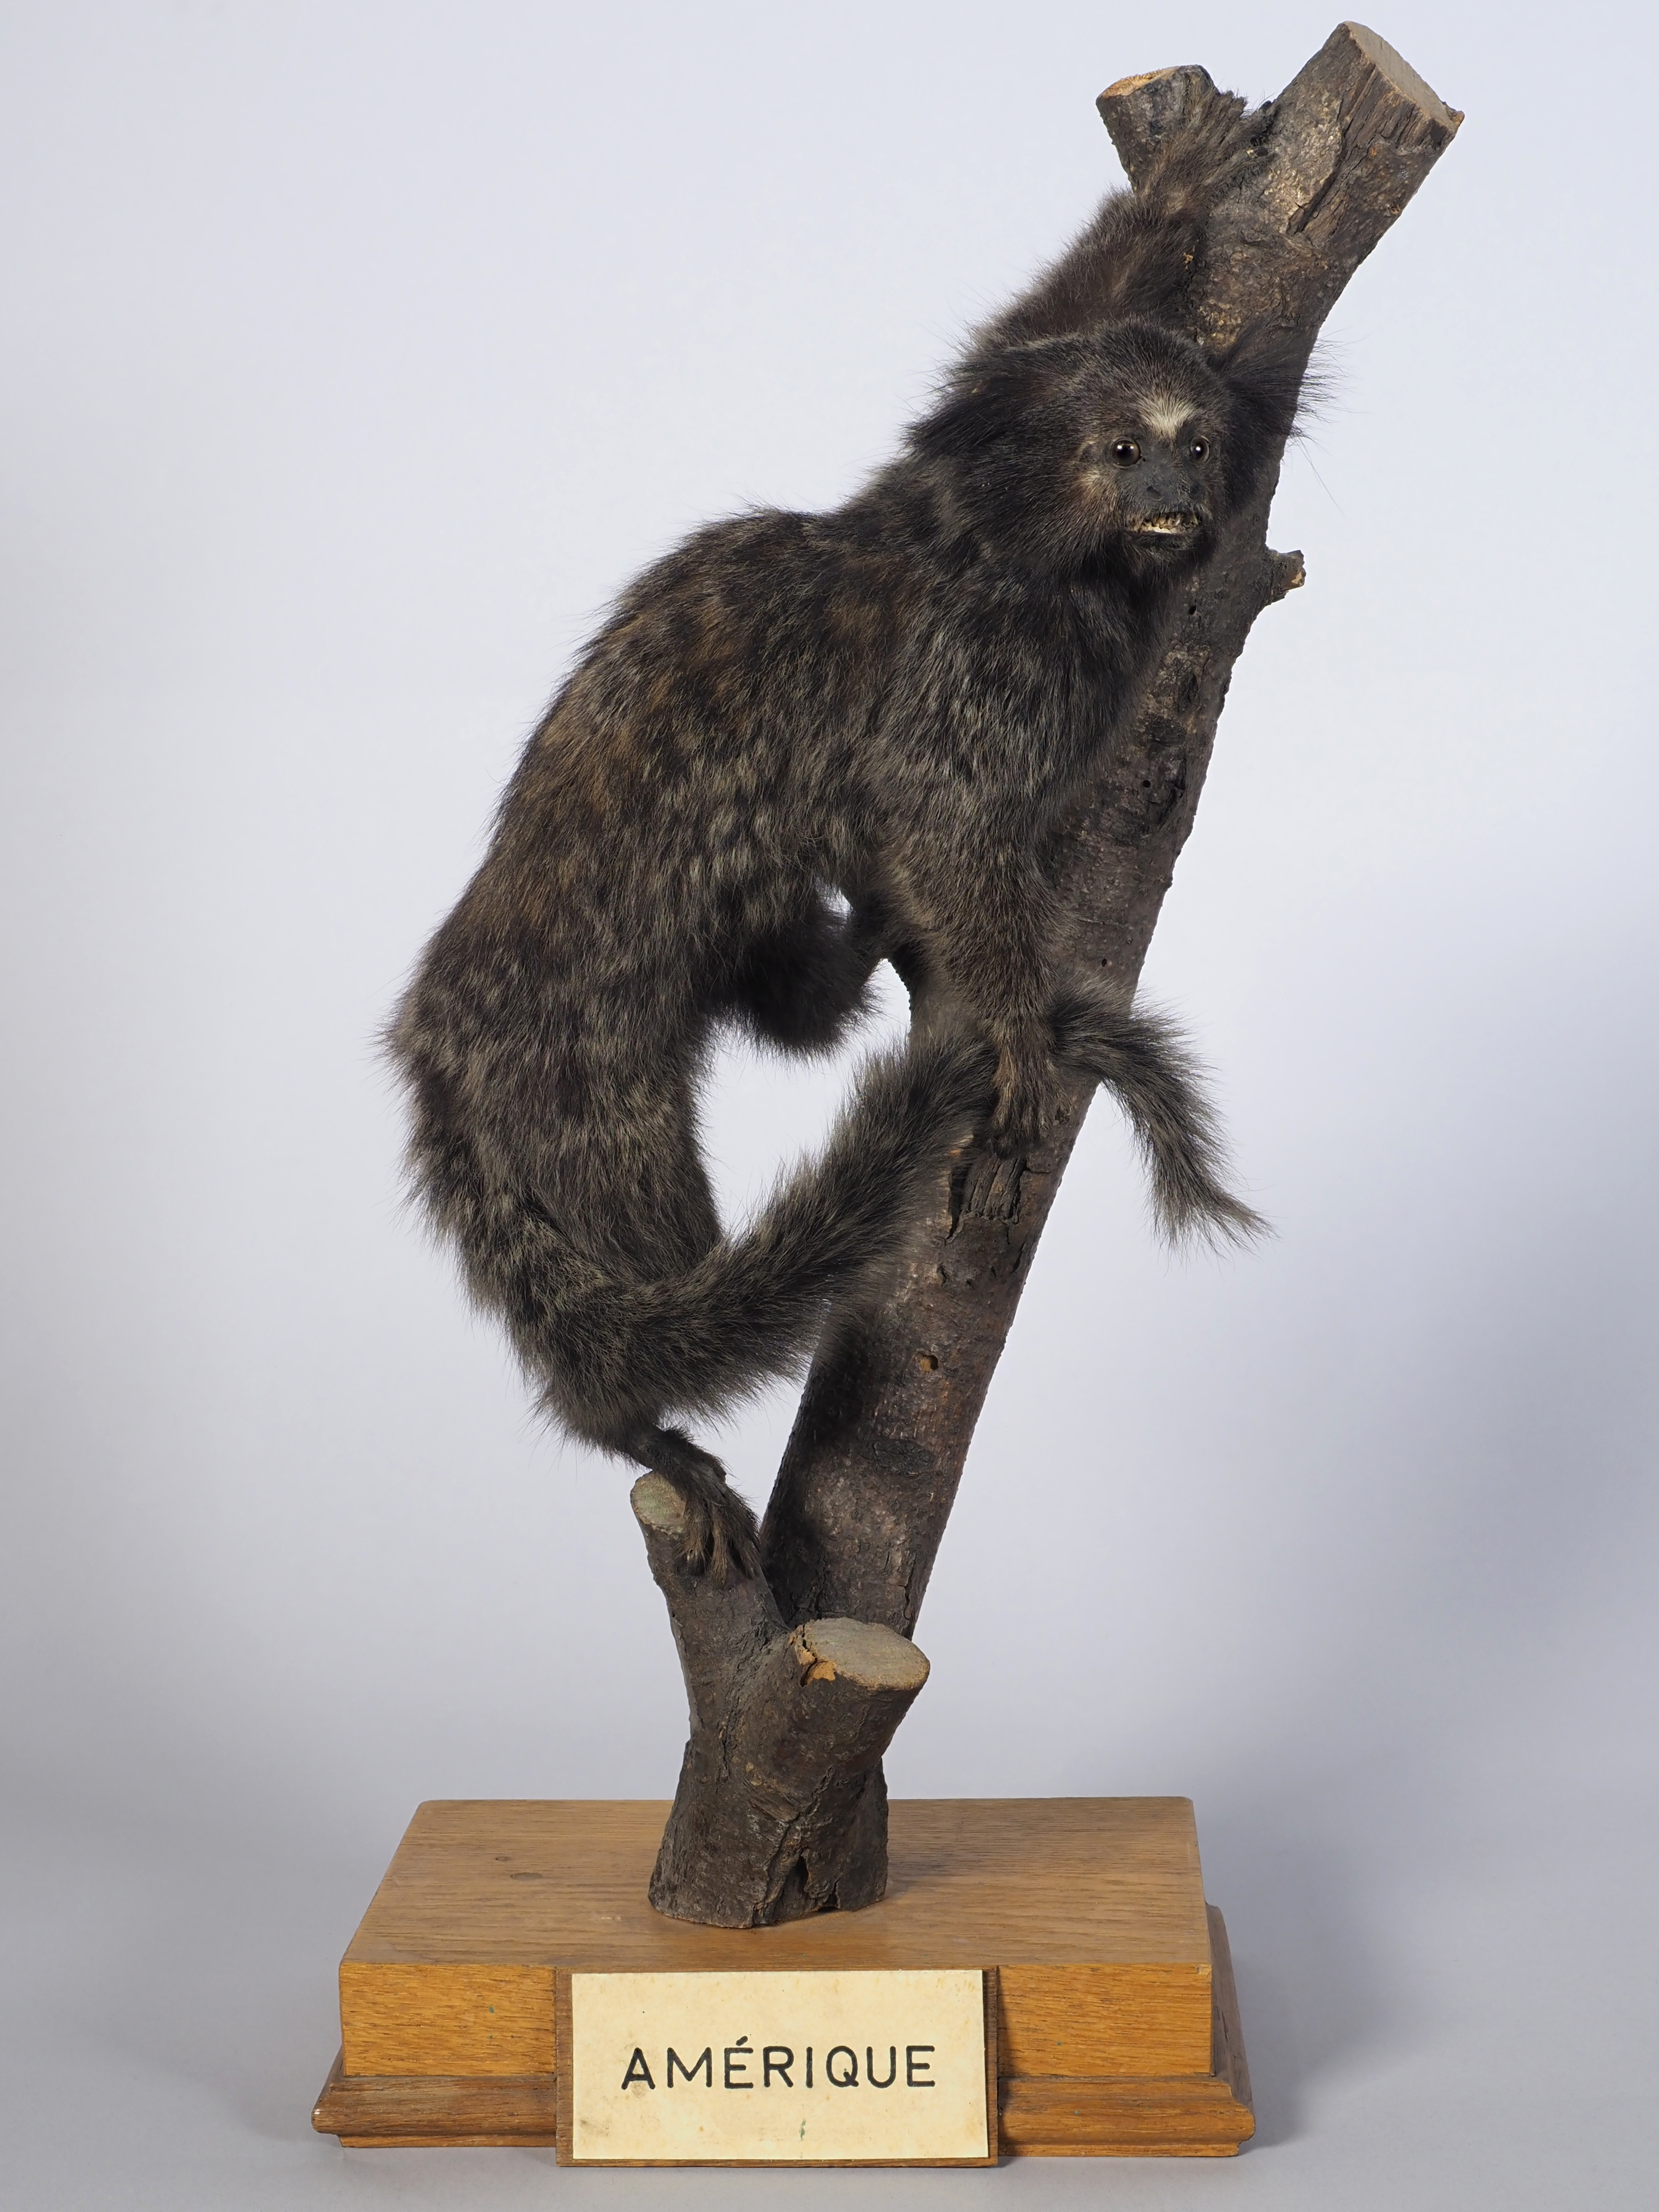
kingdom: Animalia
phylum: Chordata
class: Mammalia
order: Primates
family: Callitrichidae
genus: Callithrix
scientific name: Callithrix penicillata
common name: Black-tufted marmoset
